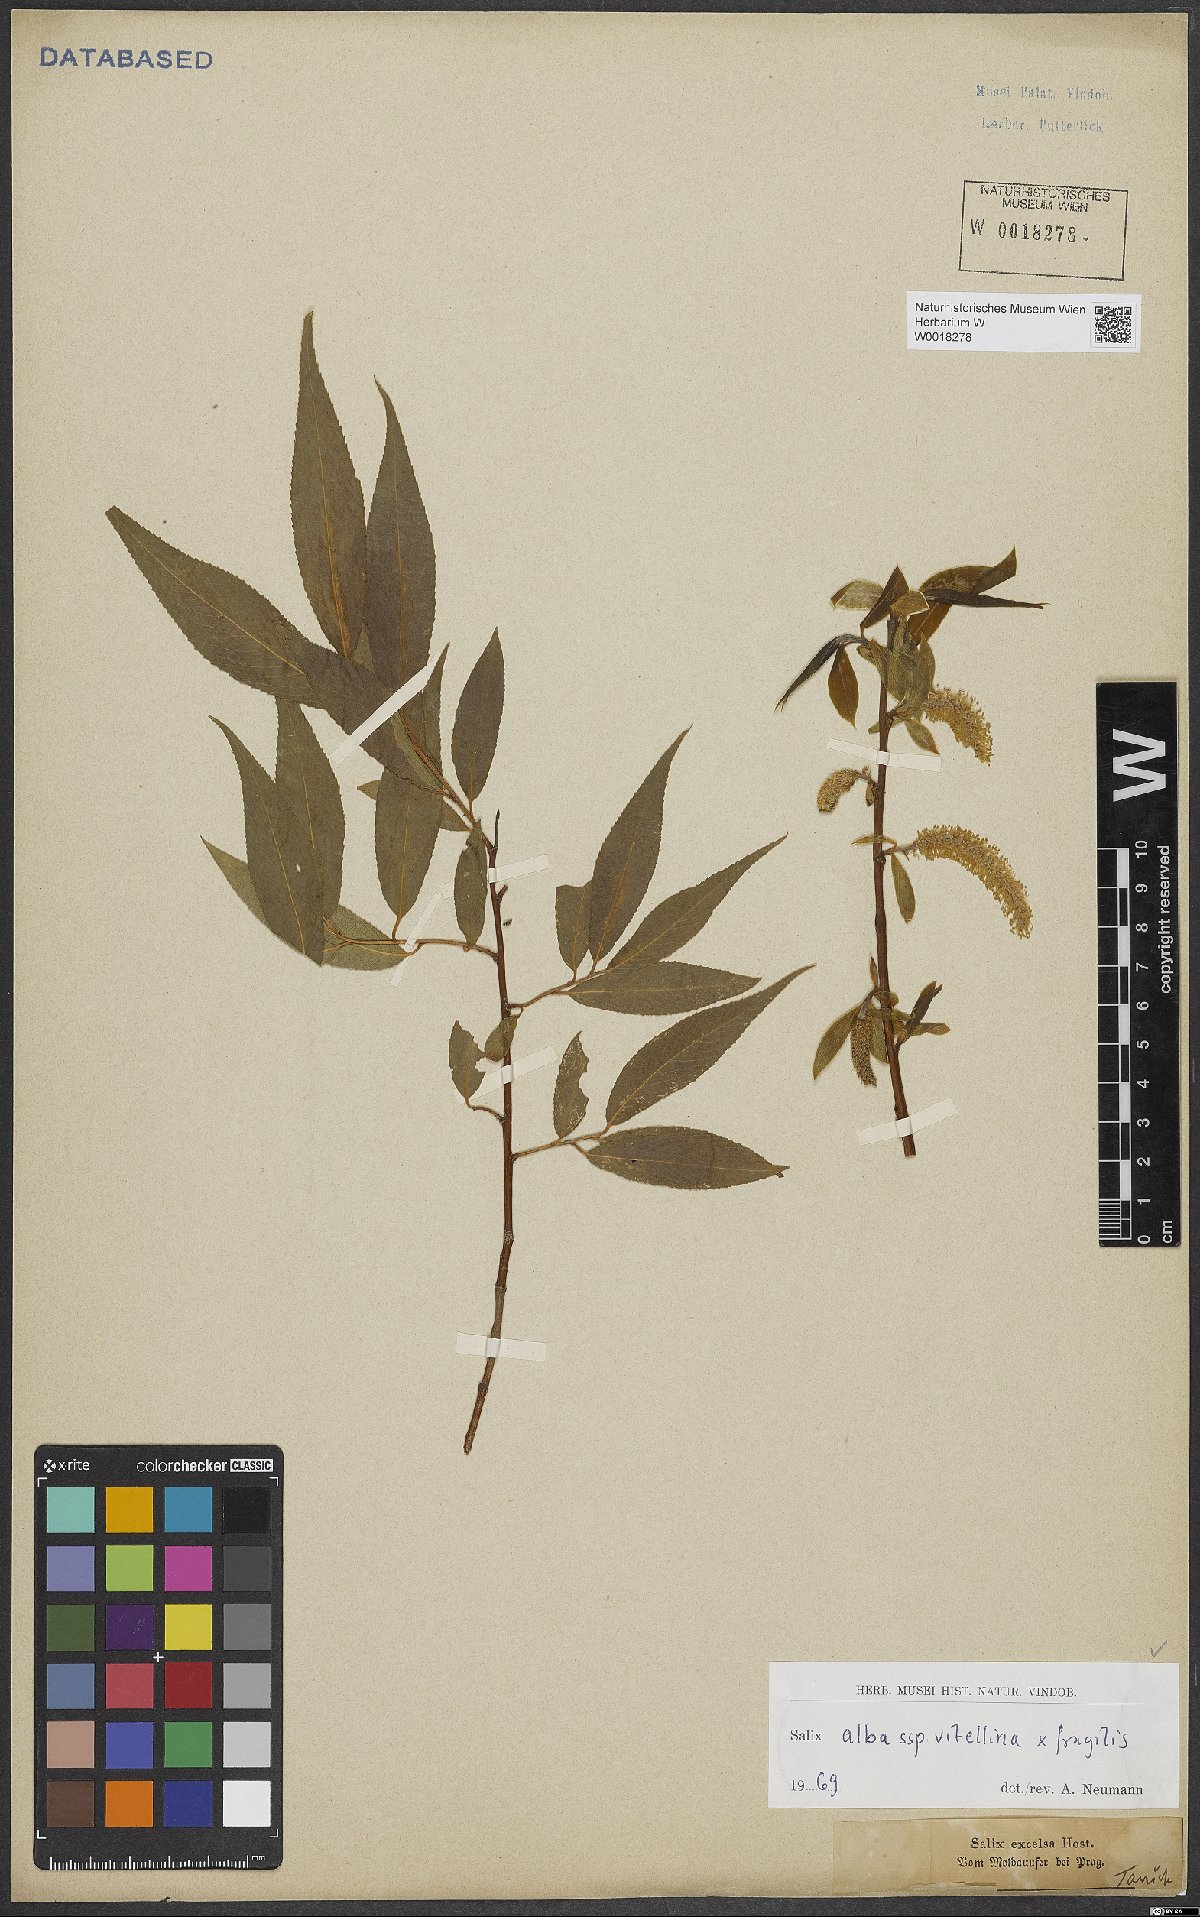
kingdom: Plantae
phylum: Tracheophyta
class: Magnoliopsida
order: Malpighiales
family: Salicaceae
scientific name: Salicaceae
